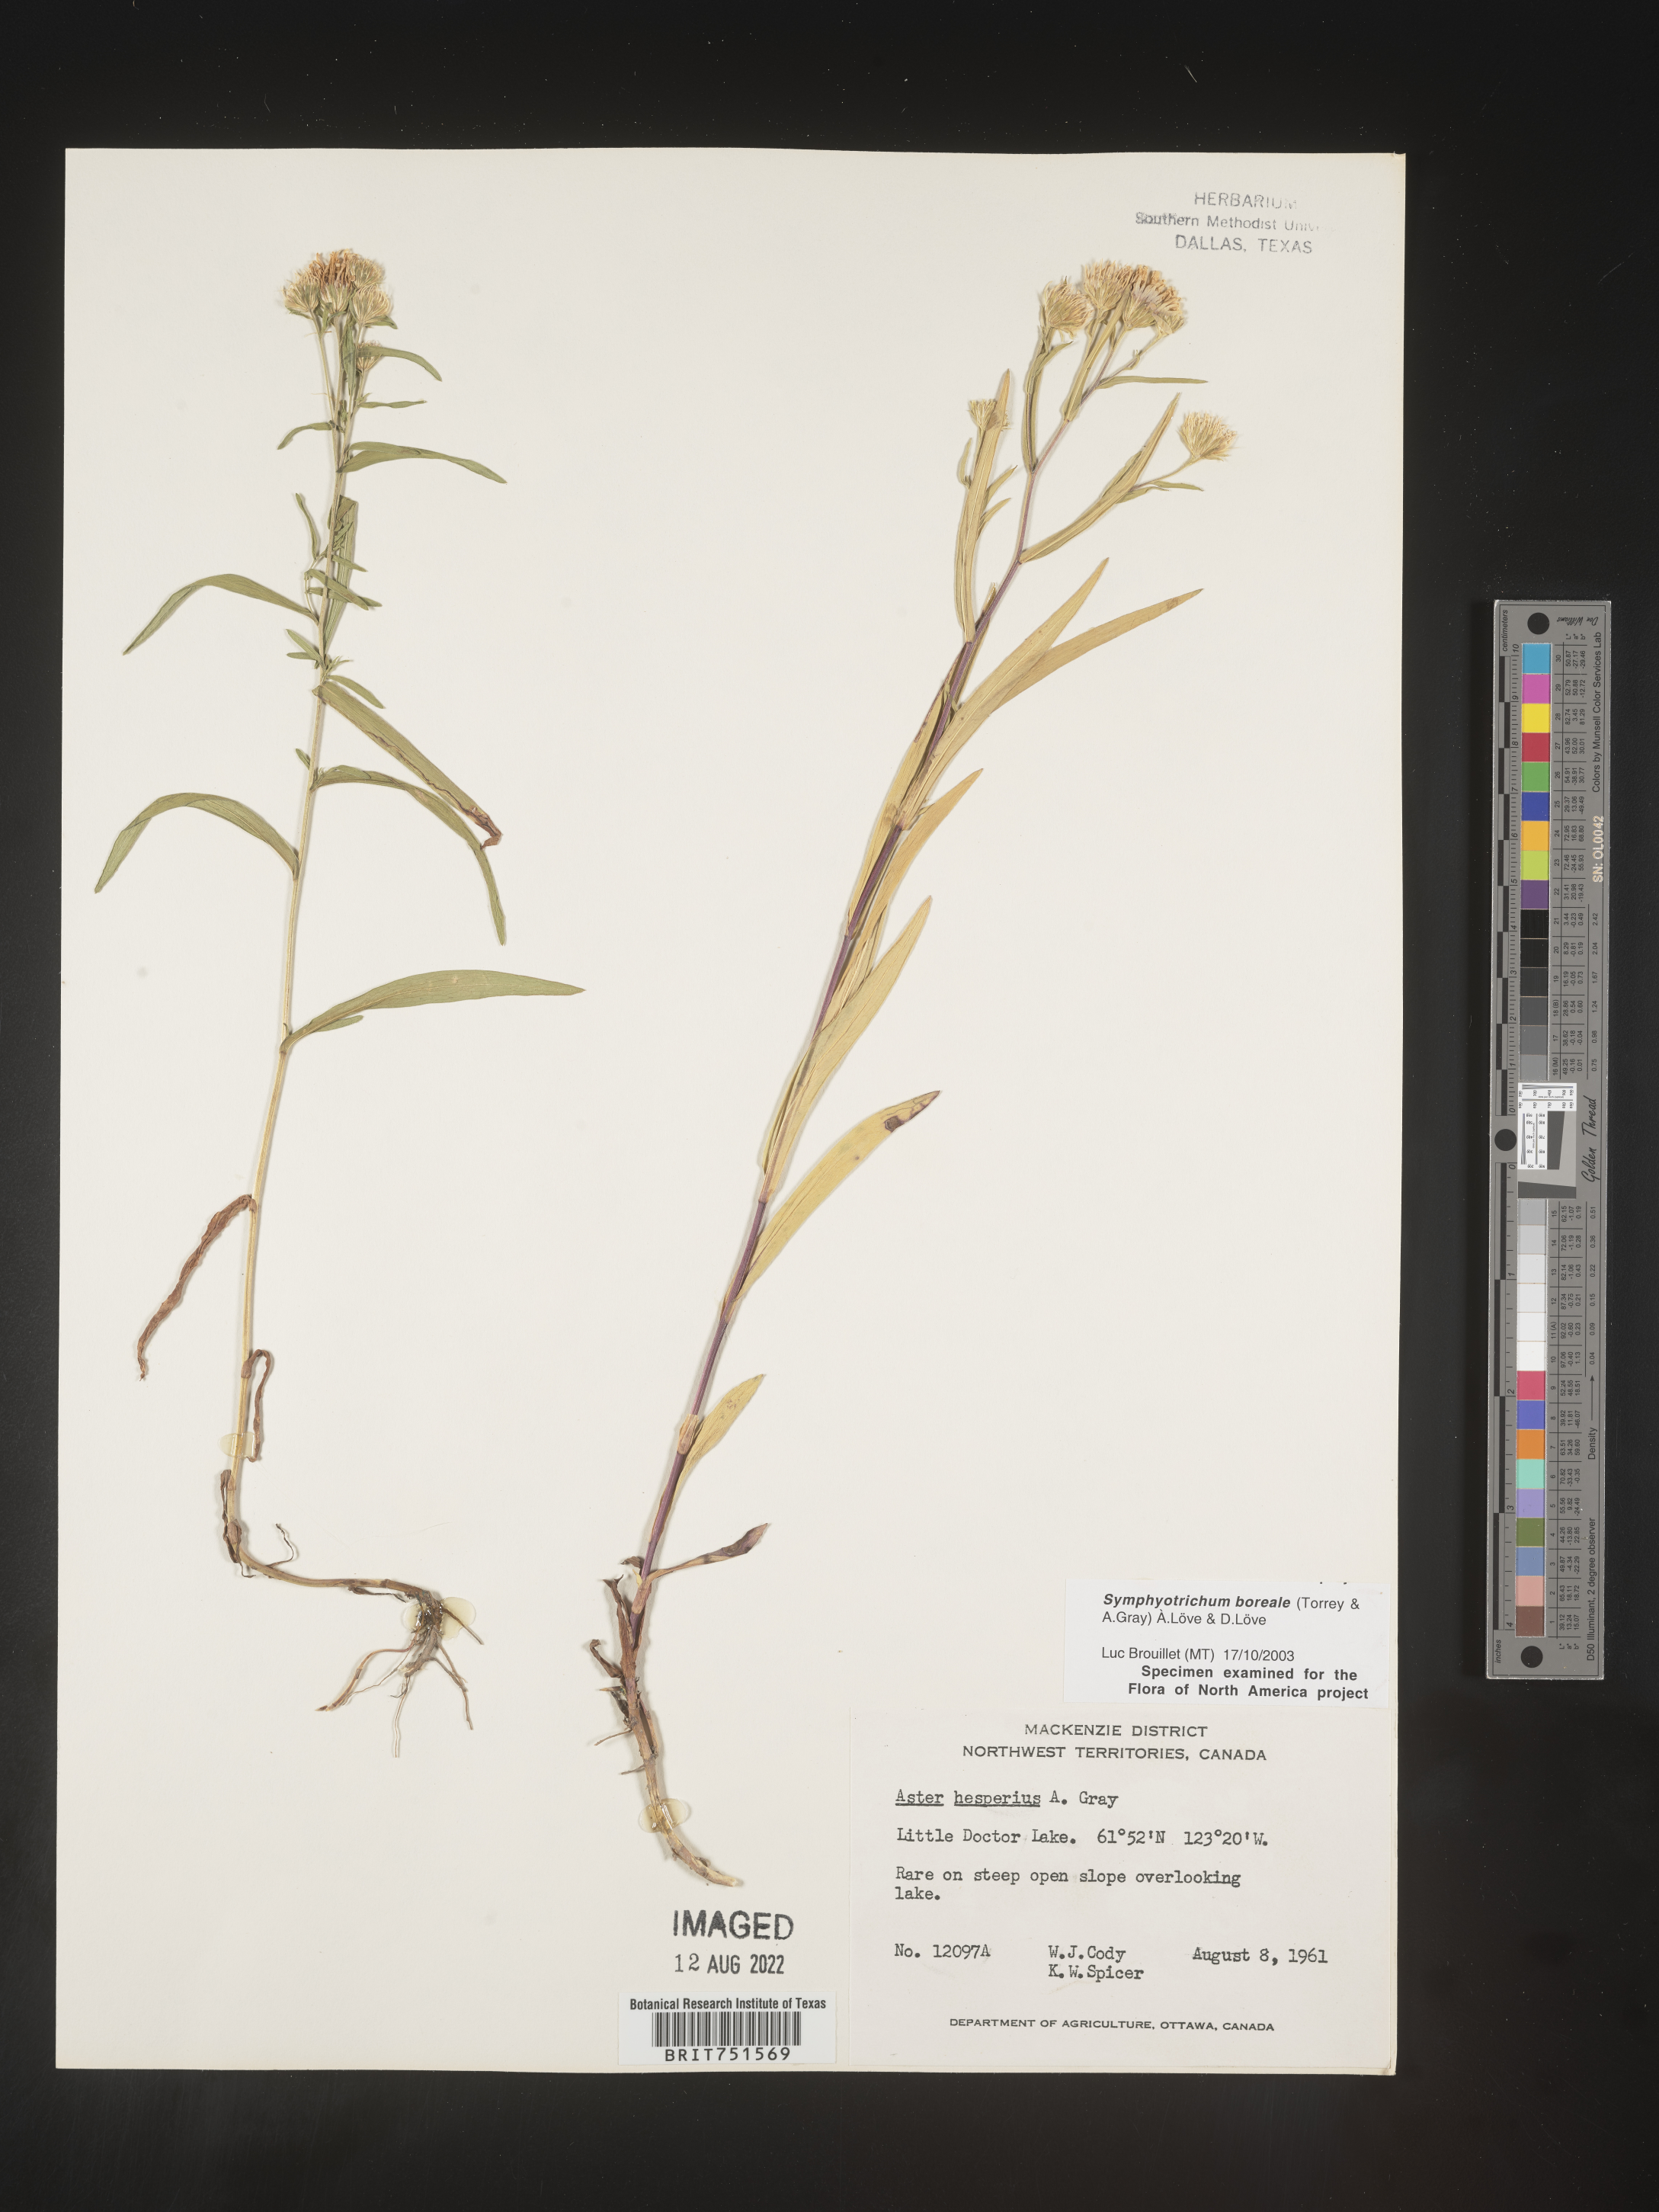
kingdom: Plantae
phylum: Tracheophyta
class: Magnoliopsida
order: Asterales
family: Asteraceae
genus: Symphyotrichum
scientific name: Symphyotrichum boreale
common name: Northern bog aster
